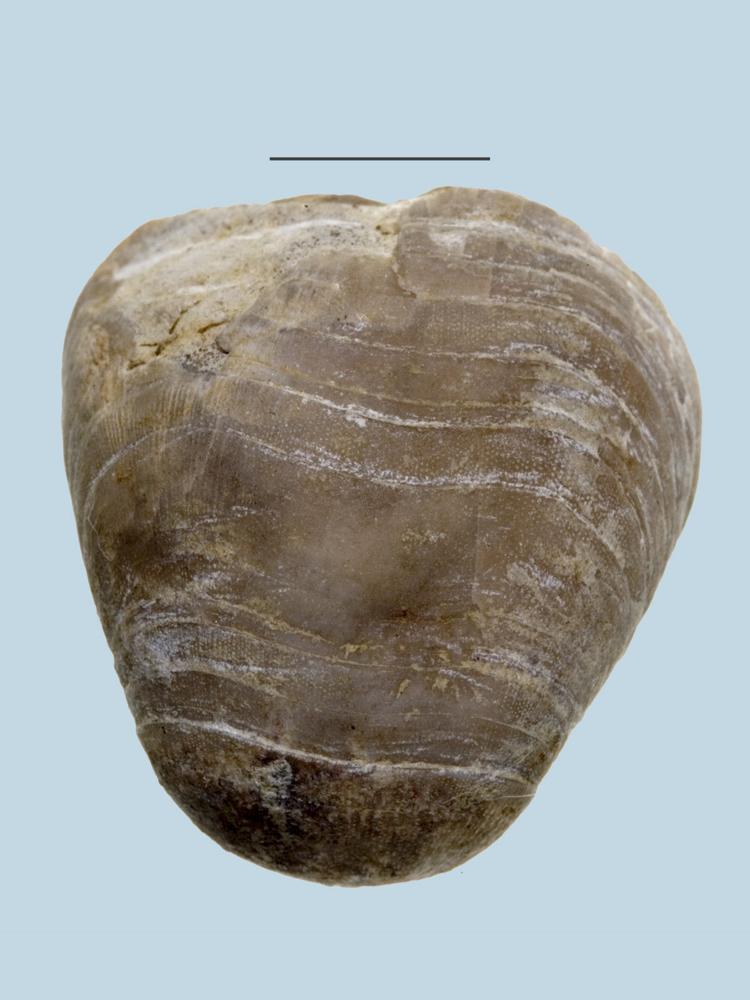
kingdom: Animalia
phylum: Brachiopoda
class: Rhynchonellata
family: Porambonitidae
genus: Porambonites
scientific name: Porambonites
